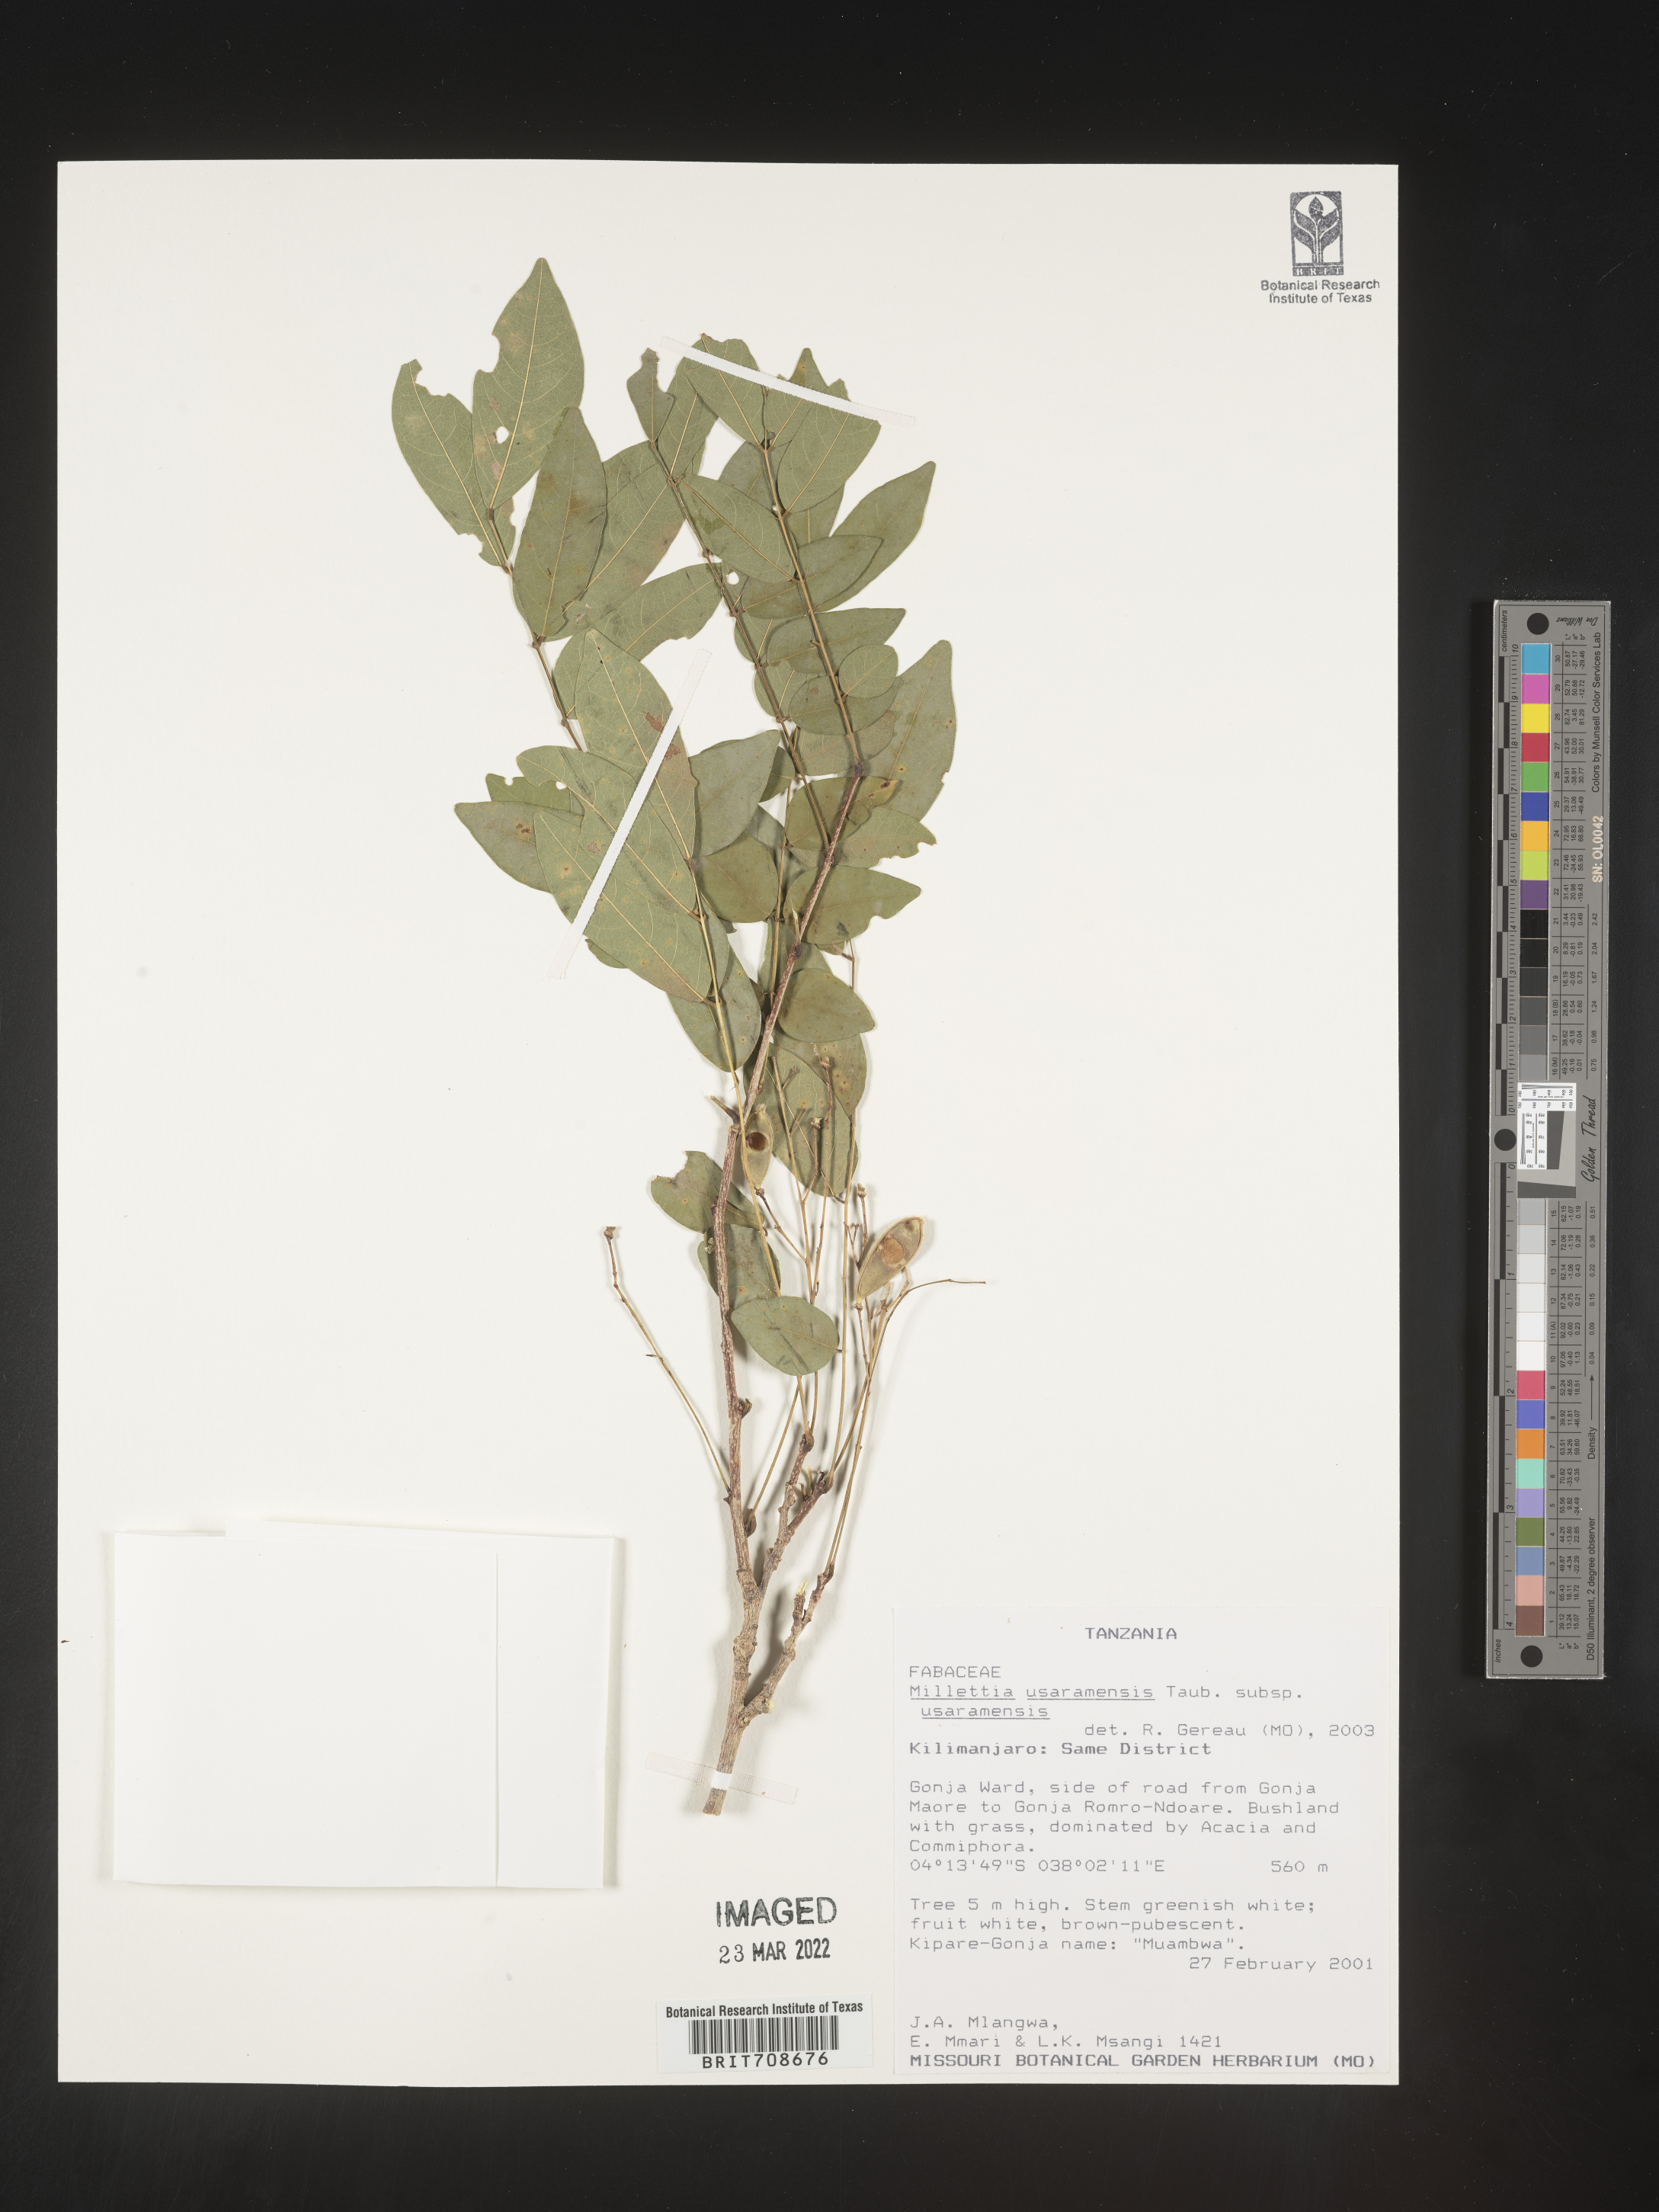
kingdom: Plantae
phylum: Tracheophyta
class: Magnoliopsida
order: Fabales
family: Fabaceae
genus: Millettia
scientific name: Millettia
